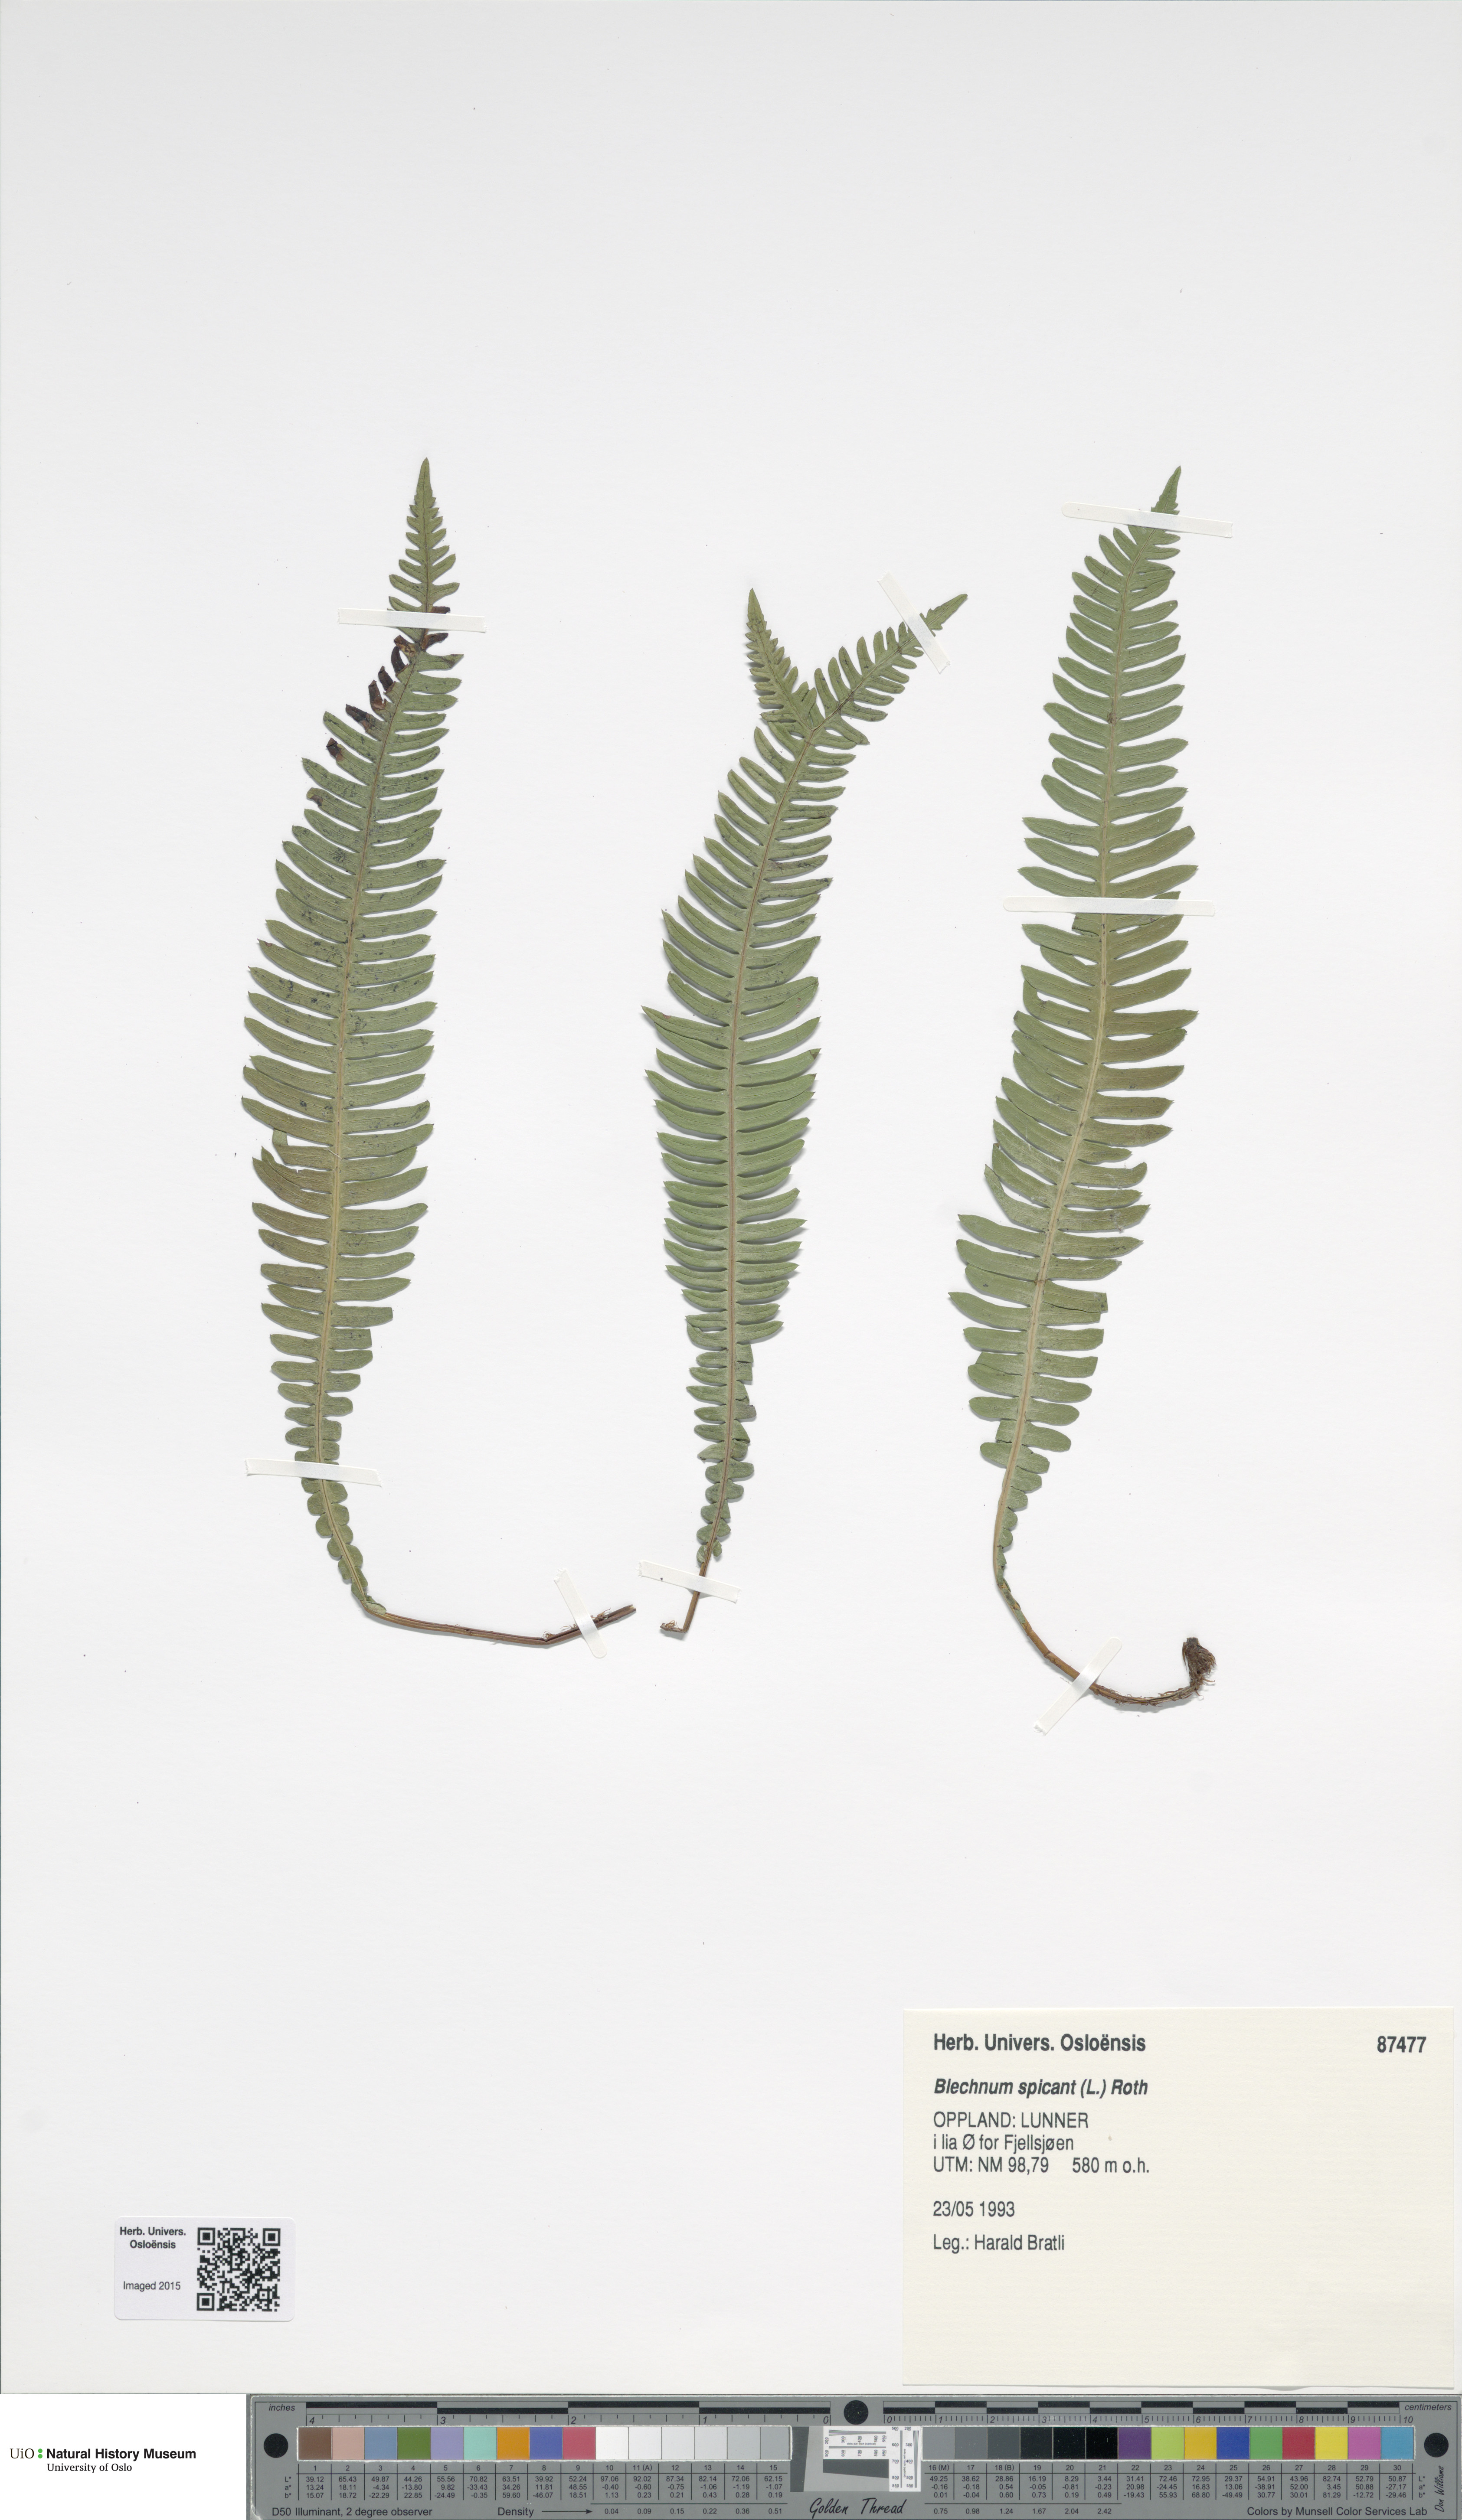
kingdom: Plantae
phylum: Tracheophyta
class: Polypodiopsida
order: Polypodiales
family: Blechnaceae
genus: Struthiopteris
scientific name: Struthiopteris spicant
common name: Deer fern
